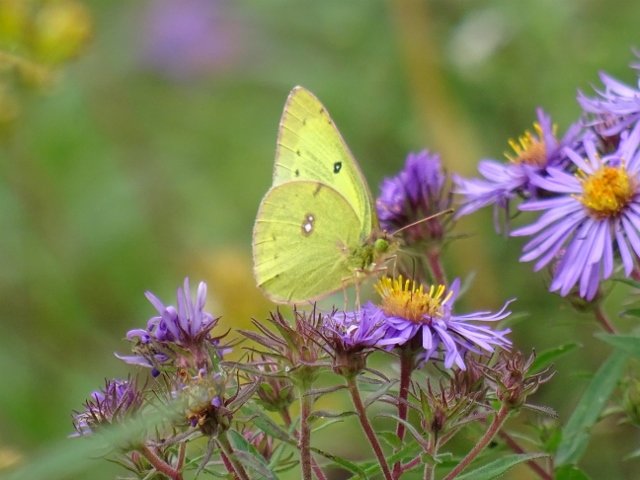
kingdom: Animalia
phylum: Arthropoda
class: Insecta
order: Lepidoptera
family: Pieridae
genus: Colias
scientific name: Colias philodice
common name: Clouded Sulphur
